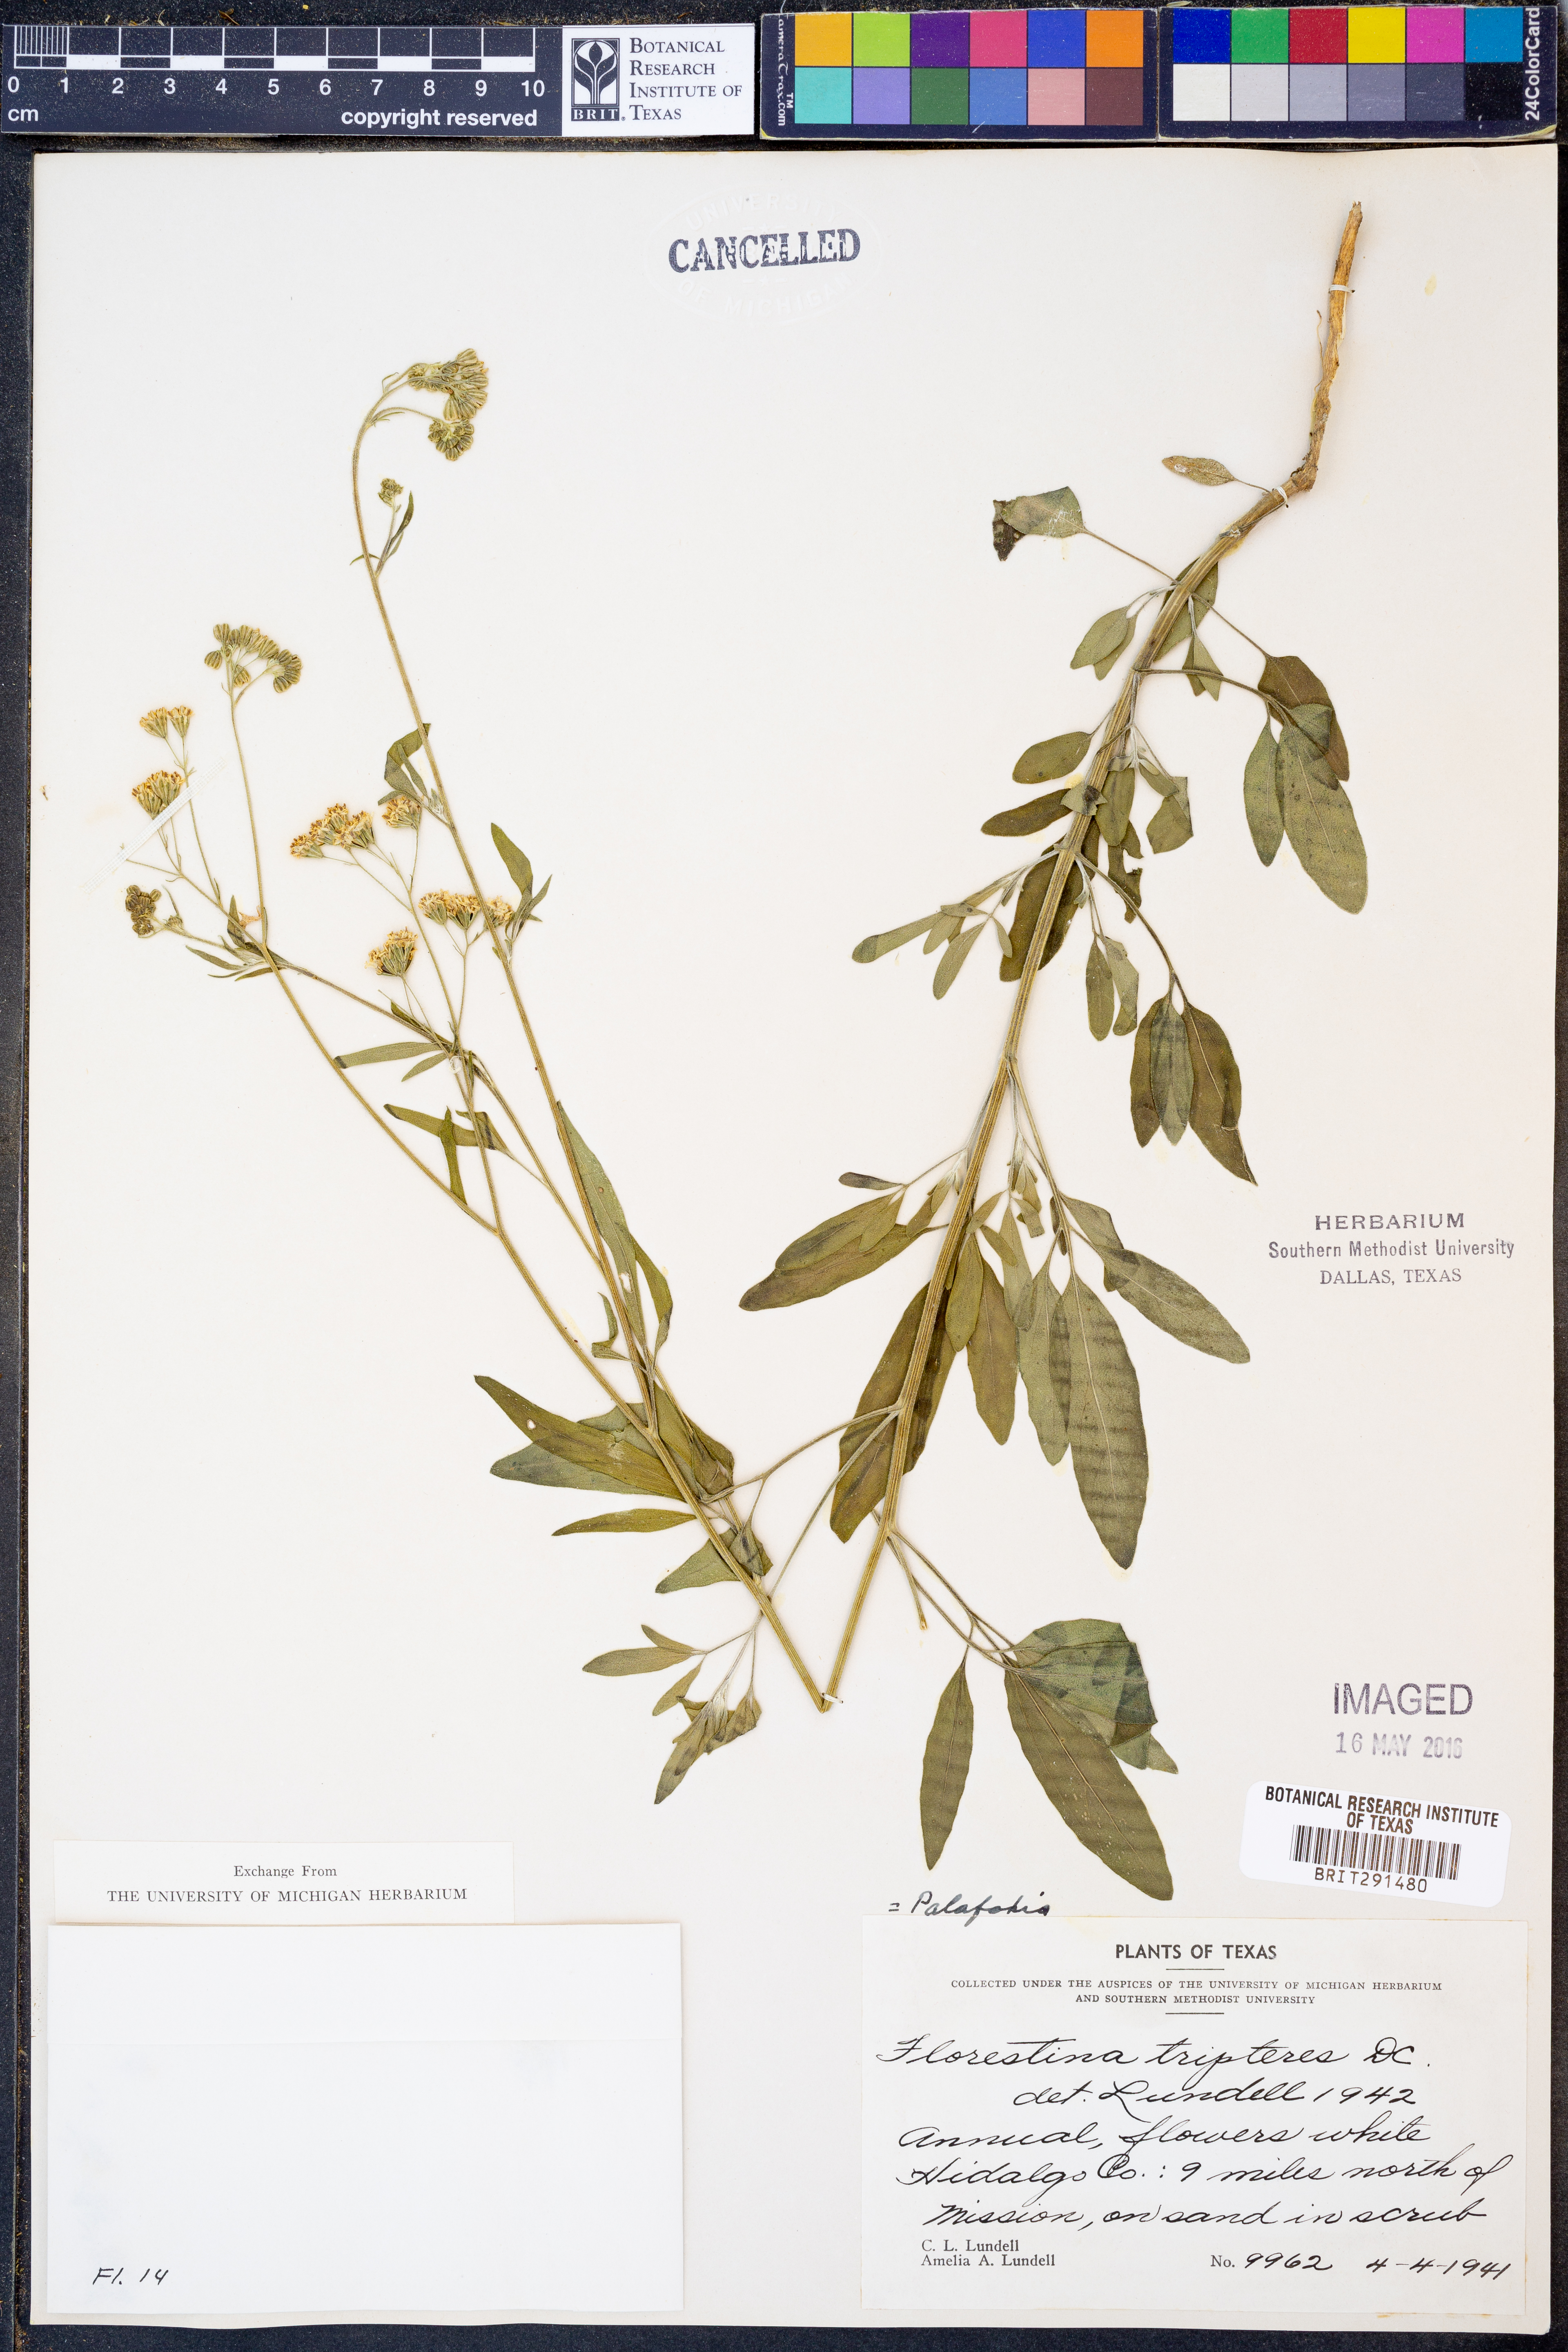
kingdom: Plantae
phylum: Tracheophyta
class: Magnoliopsida
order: Asterales
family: Asteraceae
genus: Florestina
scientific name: Florestina tripteris
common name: Sticky florestina
